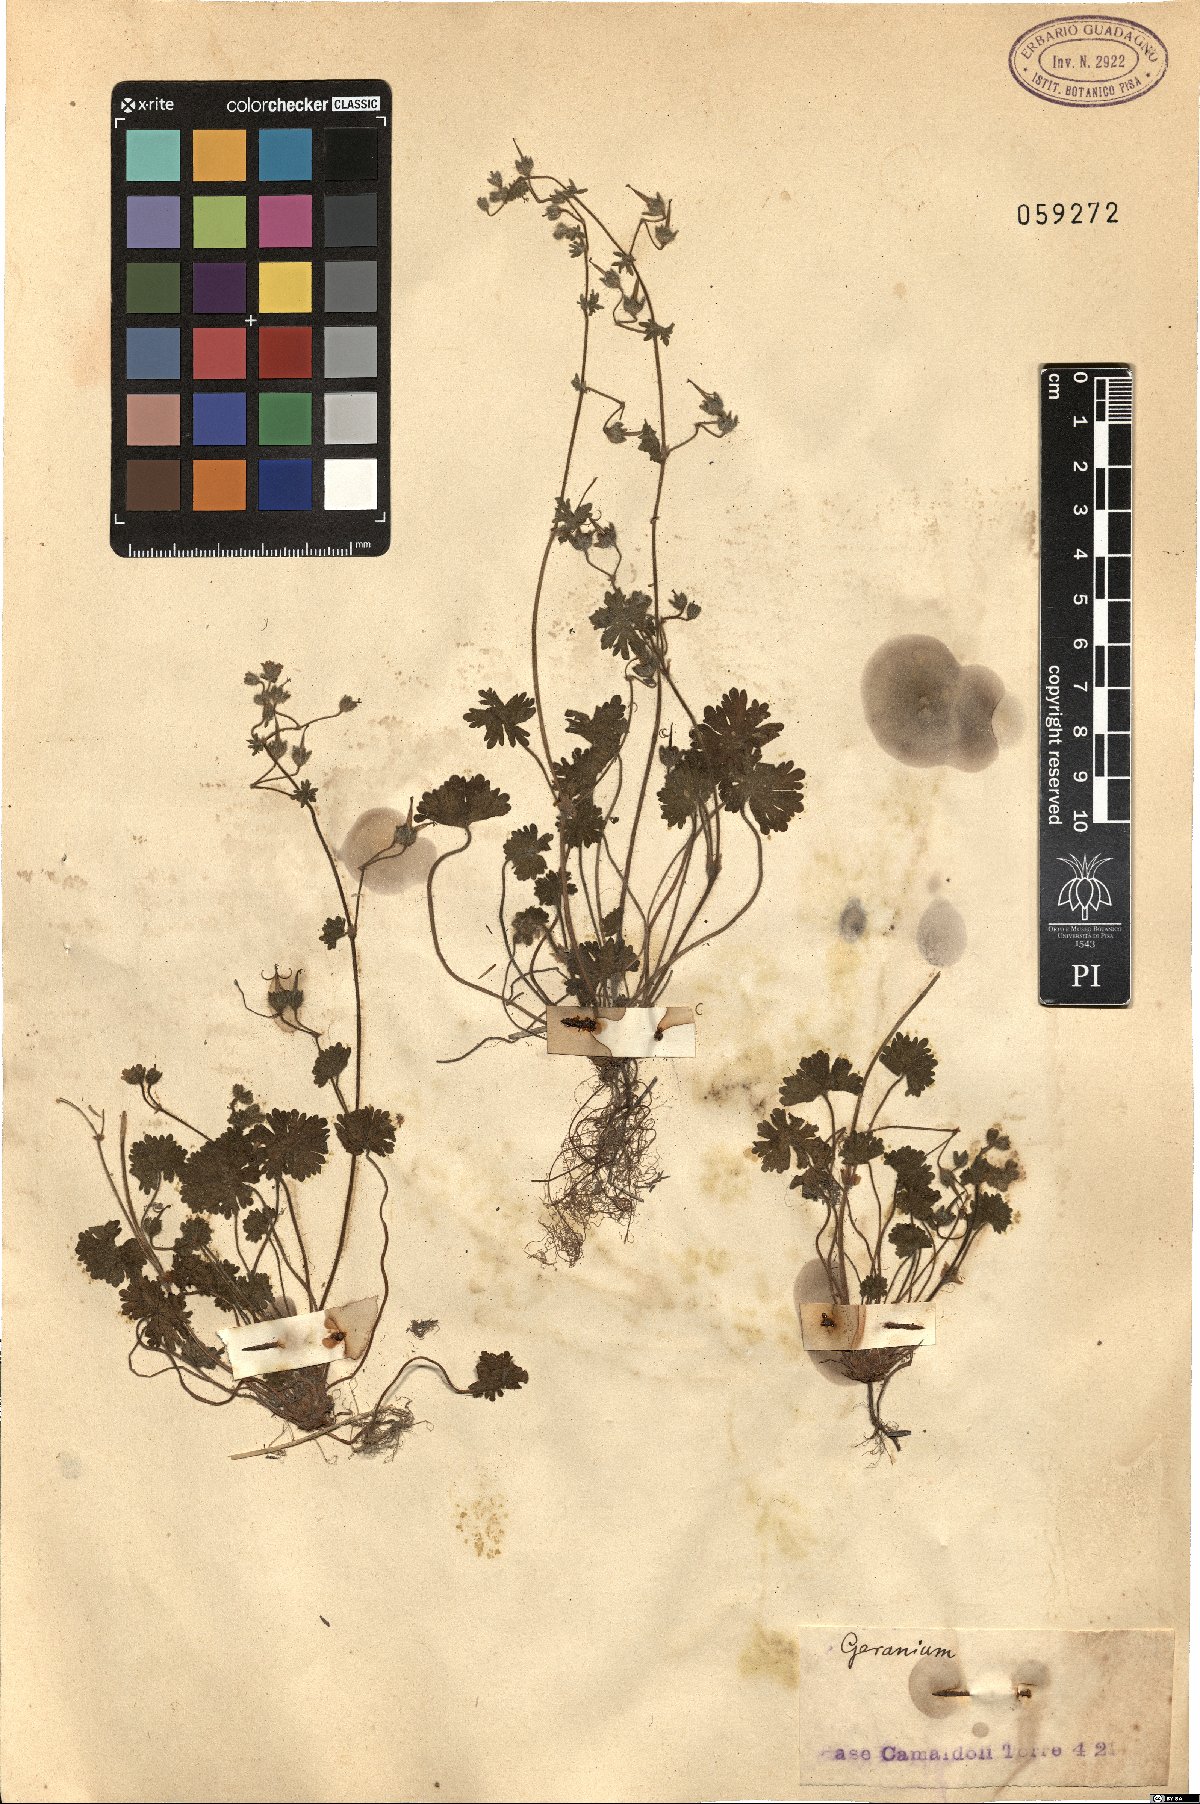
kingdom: Plantae
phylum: Tracheophyta
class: Magnoliopsida
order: Geraniales
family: Geraniaceae
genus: Geranium
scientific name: Geranium
